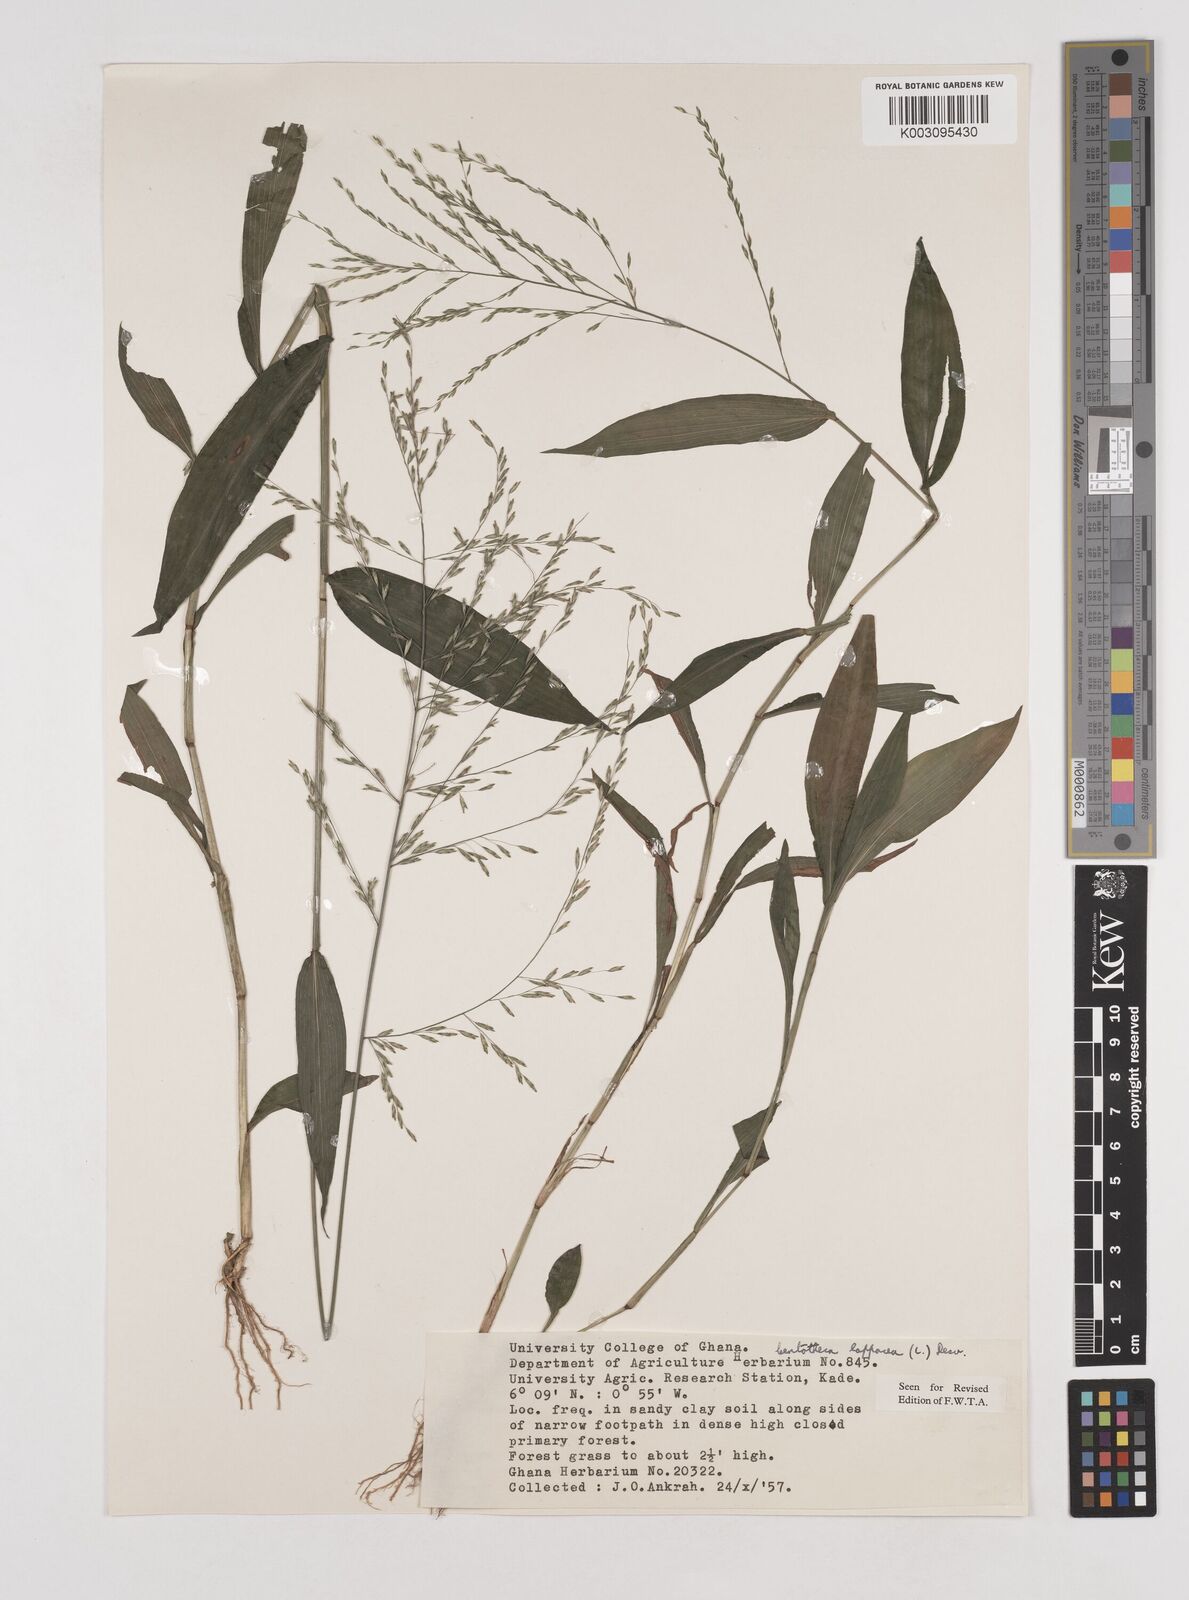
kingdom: Plantae
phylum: Tracheophyta
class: Liliopsida
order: Poales
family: Poaceae
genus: Centotheca
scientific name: Centotheca lappacea
